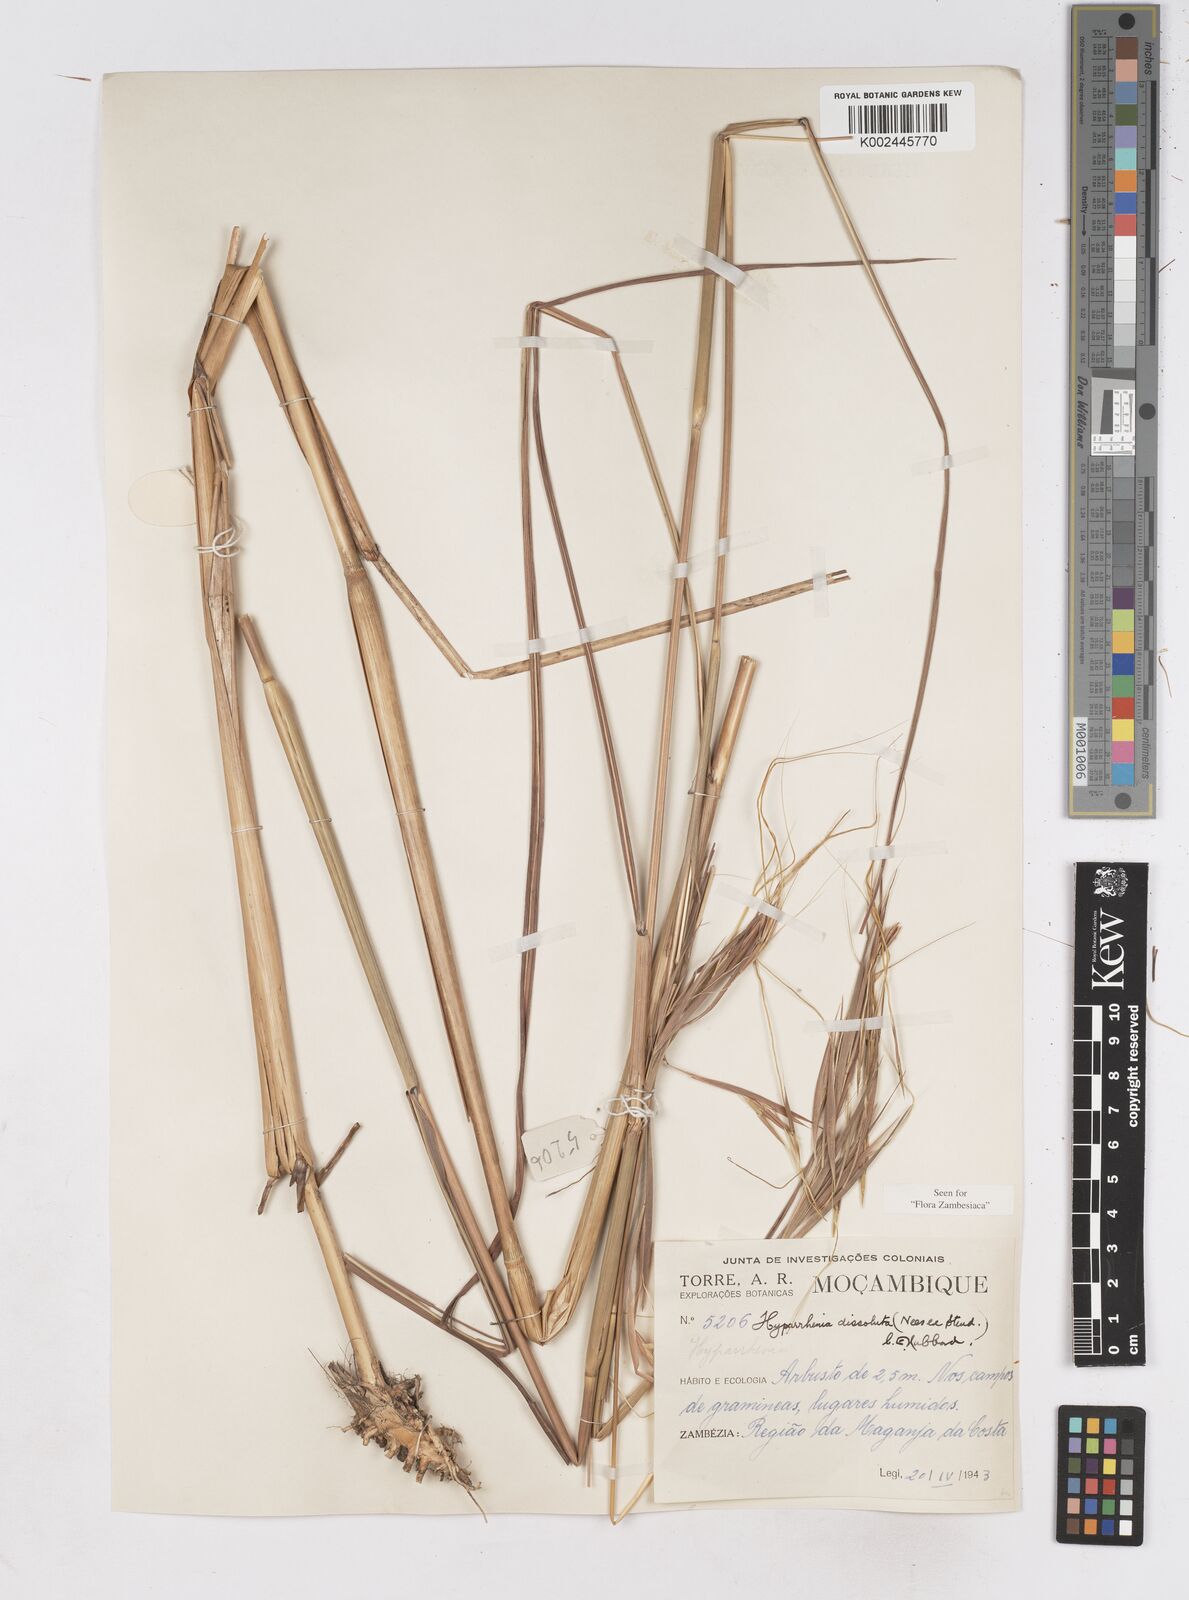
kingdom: Plantae
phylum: Tracheophyta
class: Liliopsida
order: Poales
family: Poaceae
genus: Hyperthelia
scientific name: Hyperthelia dissoluta
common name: Yellow thatching grass
